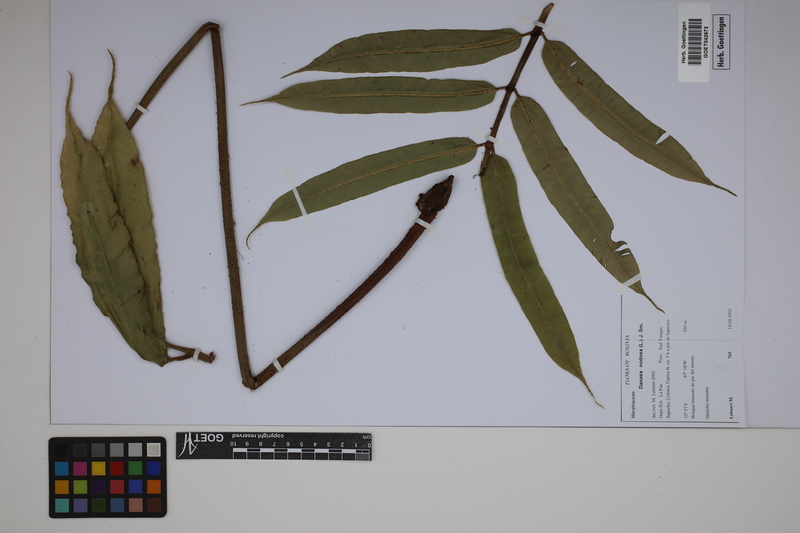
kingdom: Plantae
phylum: Tracheophyta
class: Polypodiopsida
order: Marattiales
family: Marattiaceae
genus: Danaea
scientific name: Danaea nodosa
